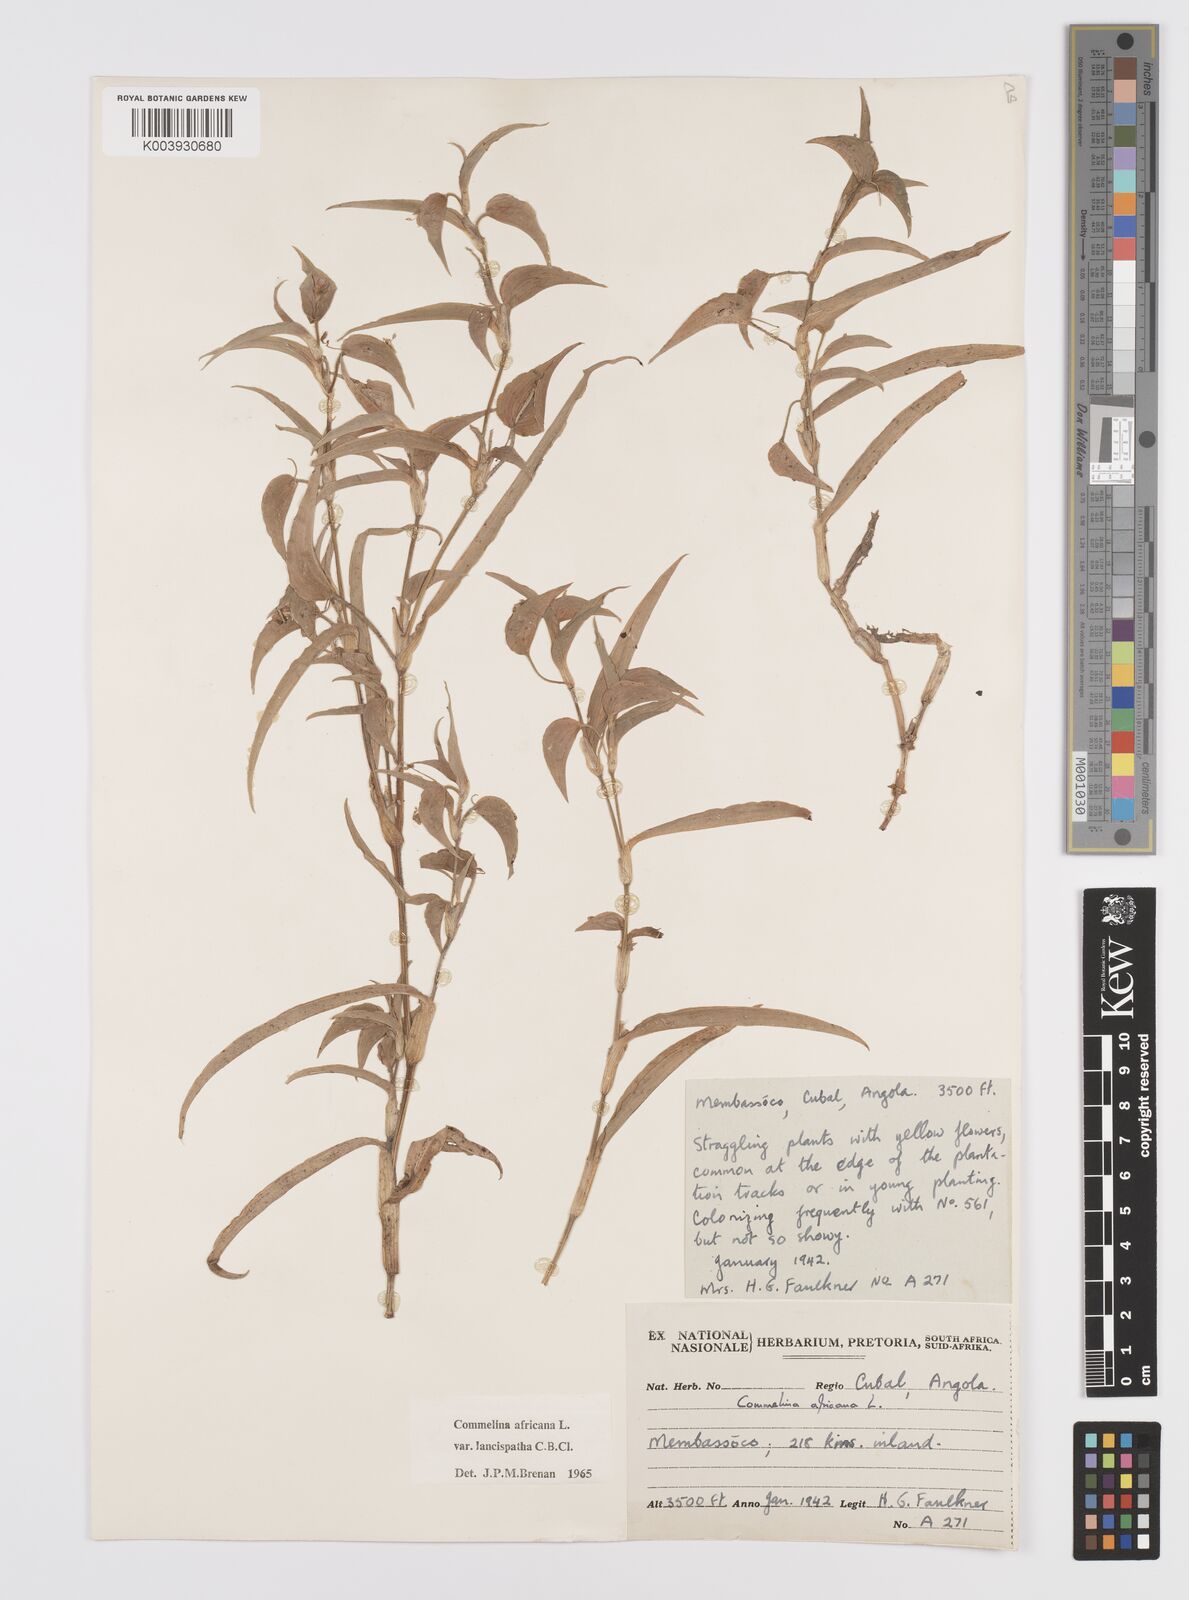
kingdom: Plantae
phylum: Tracheophyta
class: Liliopsida
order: Commelinales
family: Commelinaceae
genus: Commelina
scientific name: Commelina africana
